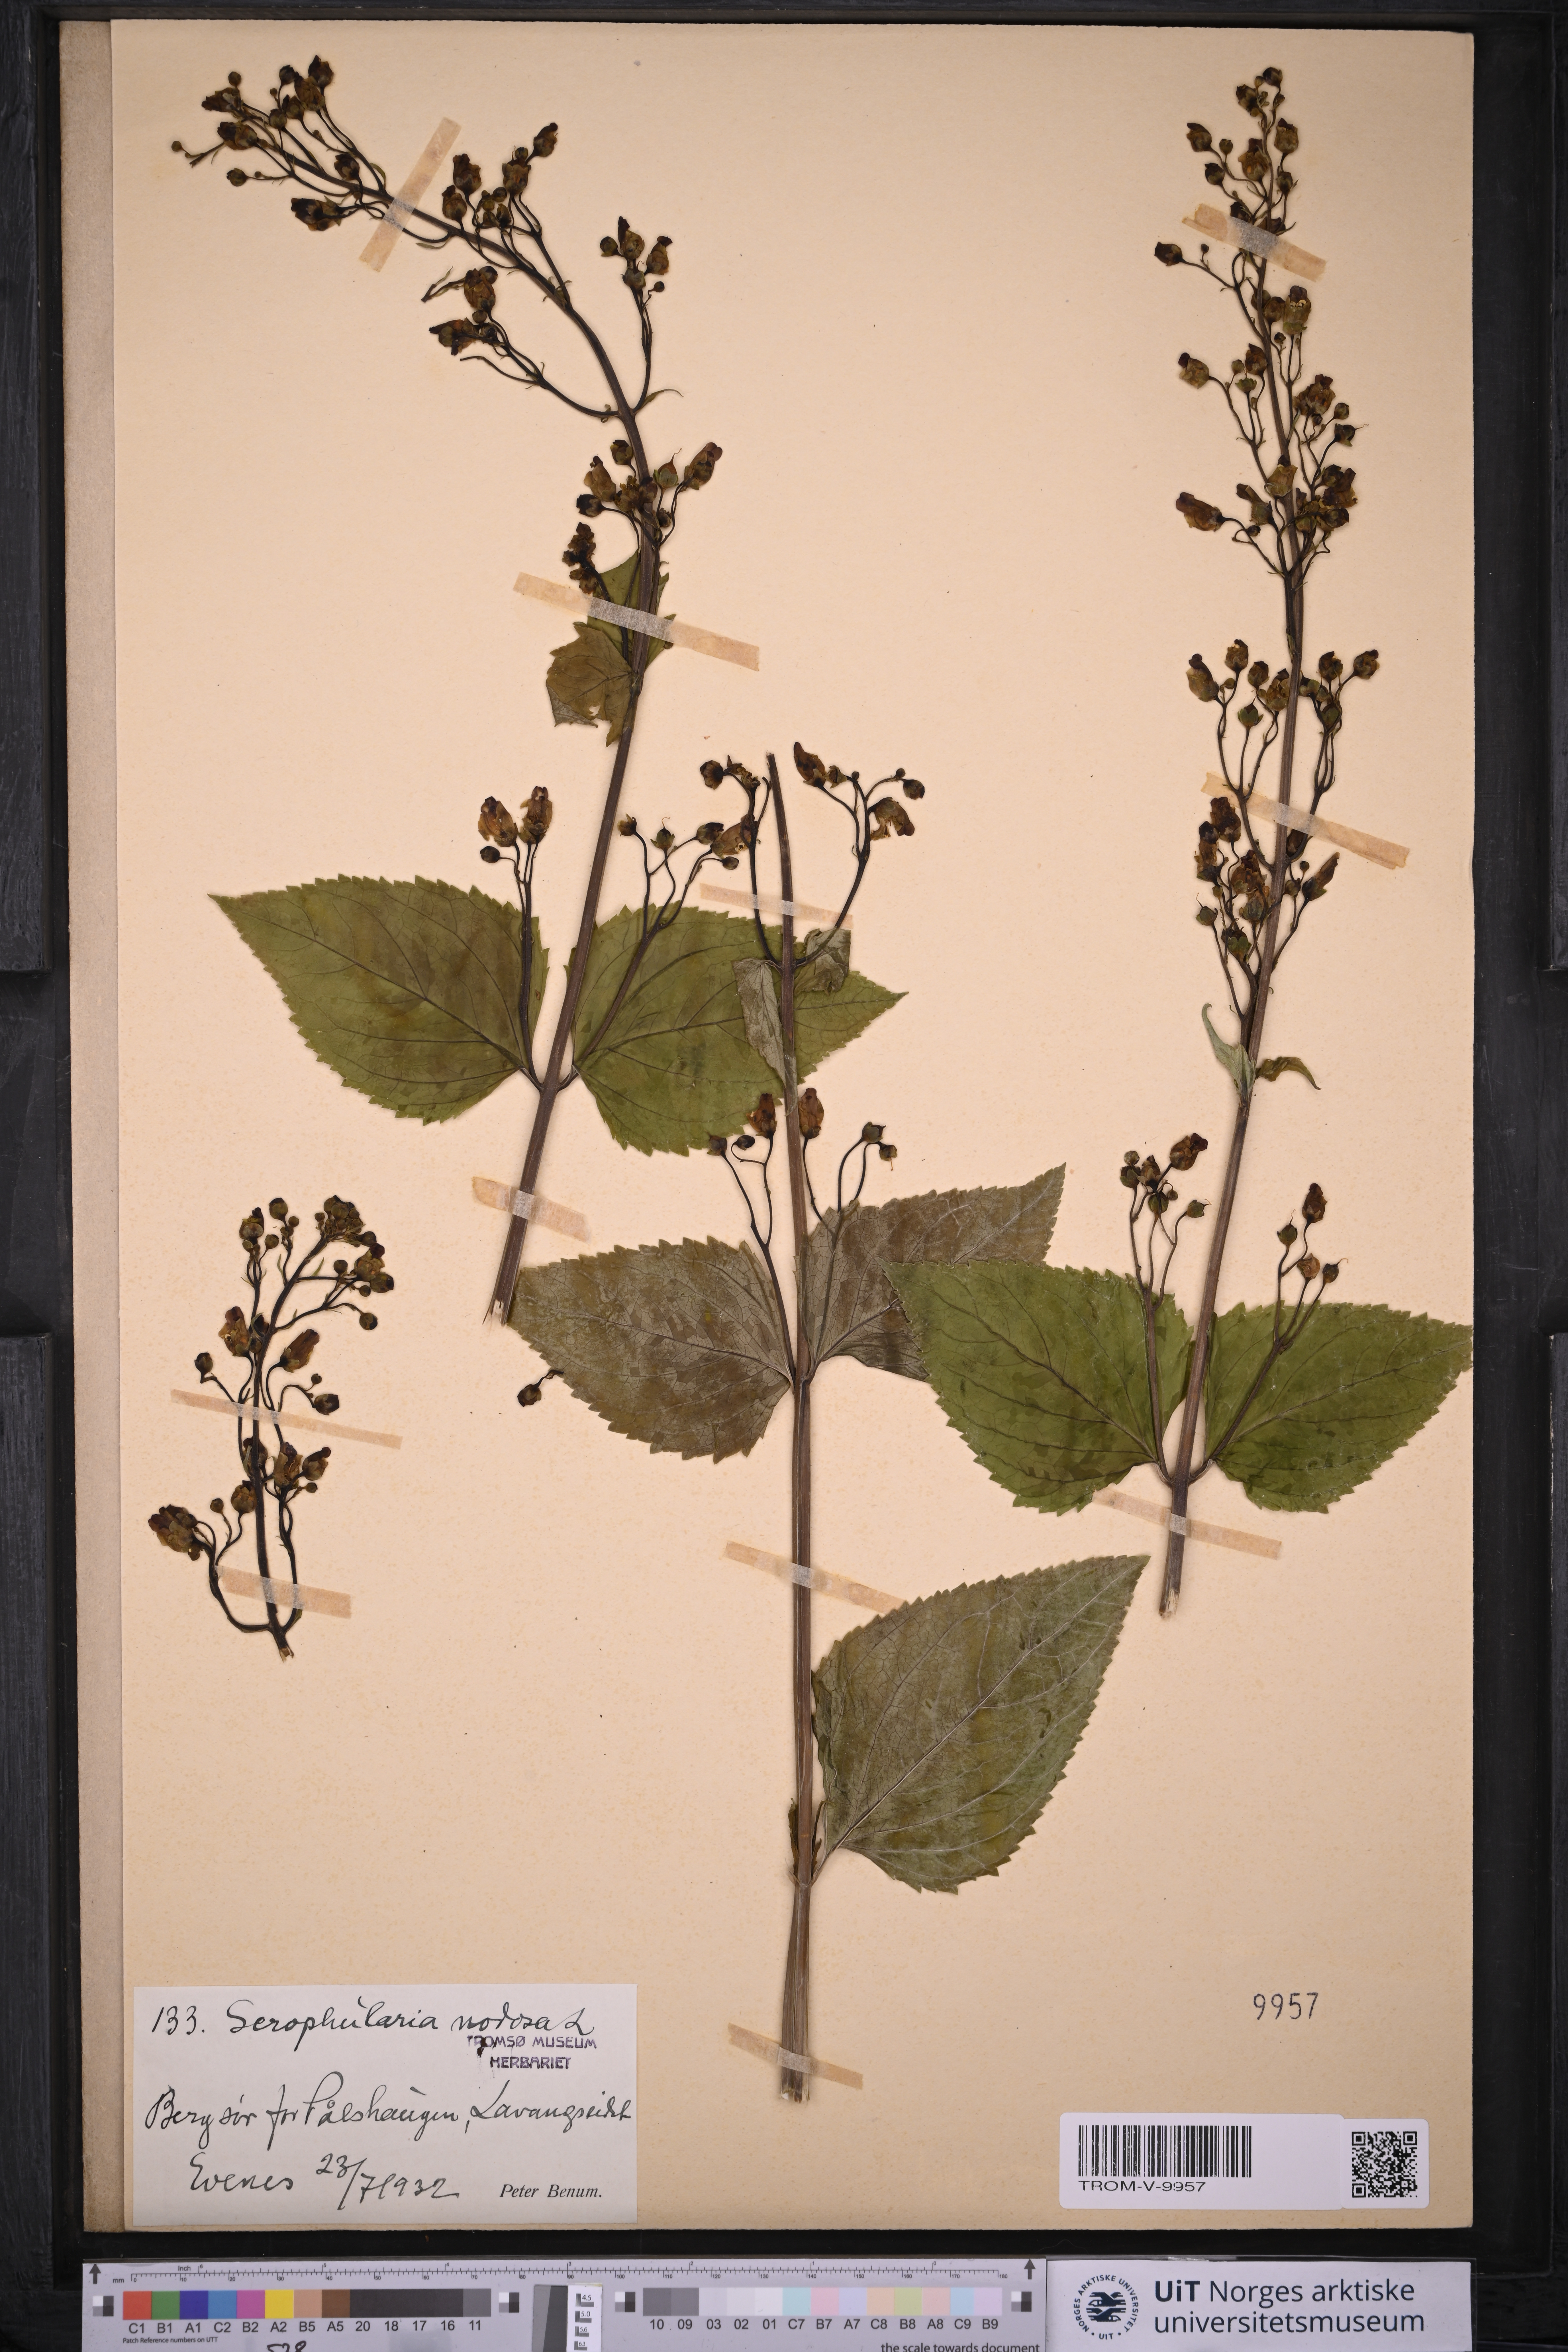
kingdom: Plantae
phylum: Tracheophyta
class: Magnoliopsida
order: Lamiales
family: Scrophulariaceae
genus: Scrophularia
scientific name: Scrophularia nodosa
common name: Common figwort
